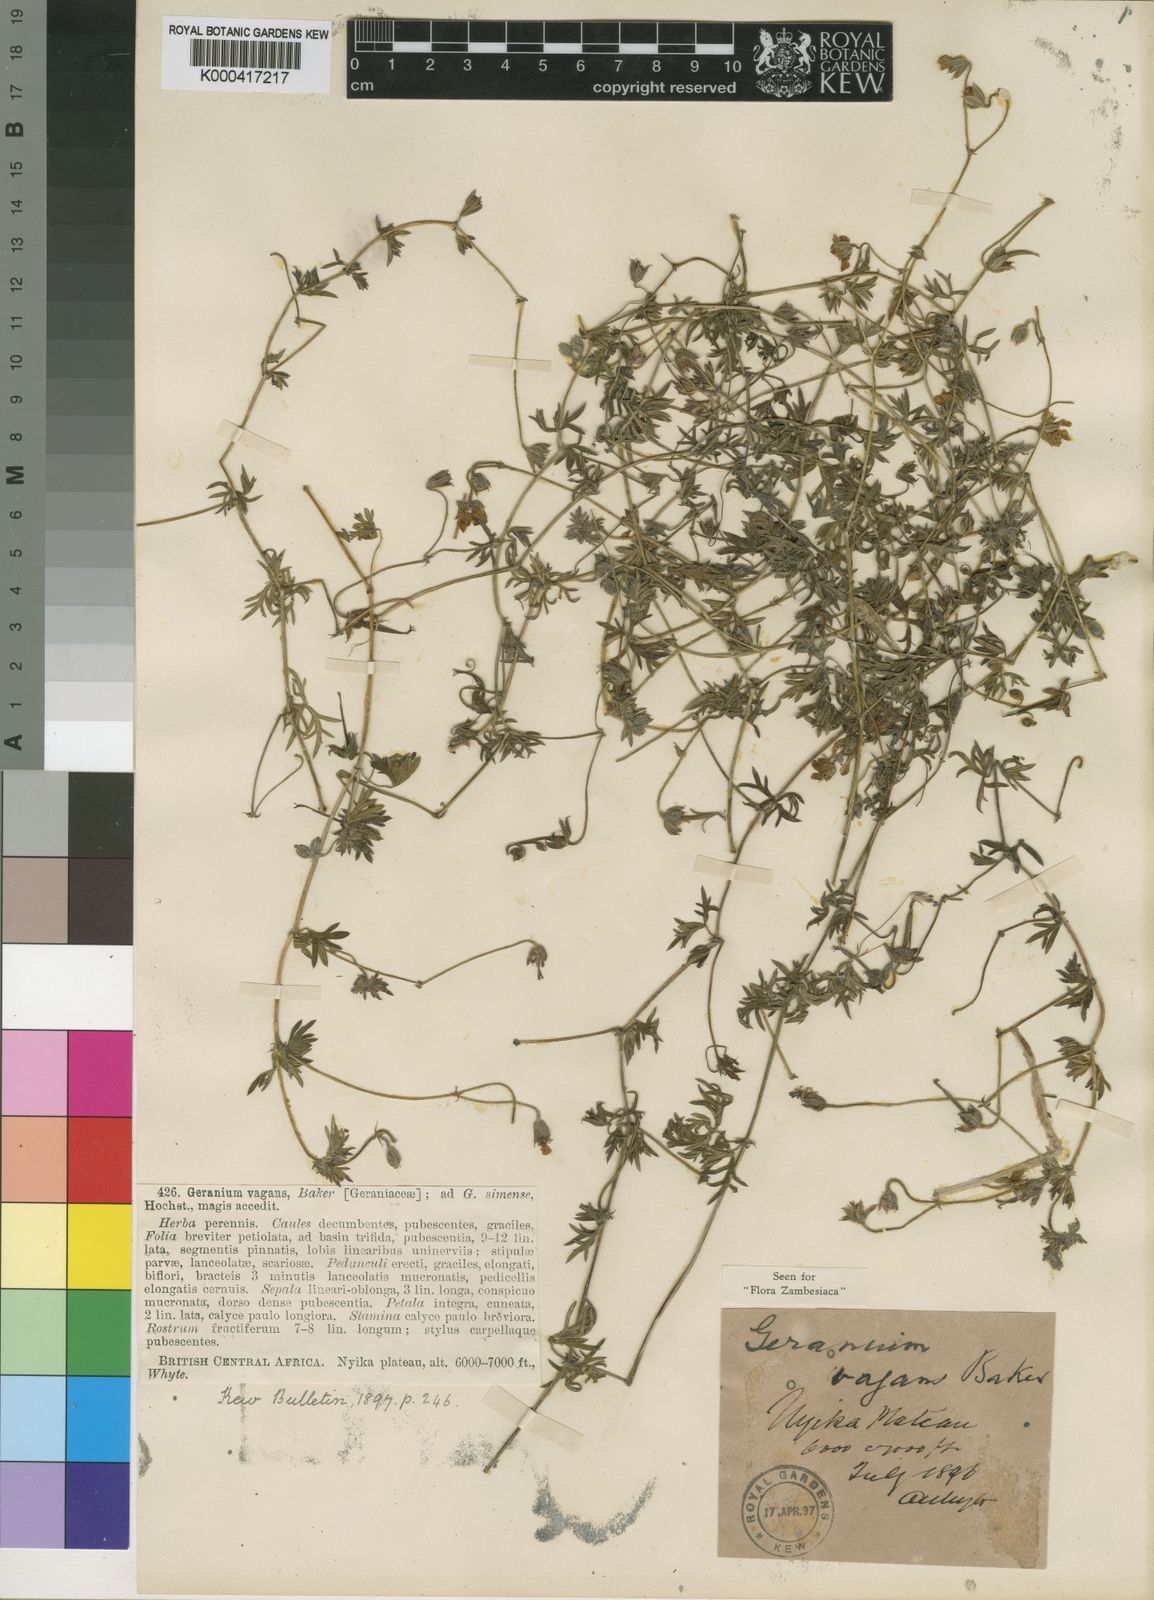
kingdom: Plantae
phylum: Tracheophyta
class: Magnoliopsida
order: Geraniales
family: Geraniaceae
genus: Geranium
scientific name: Geranium vagans
